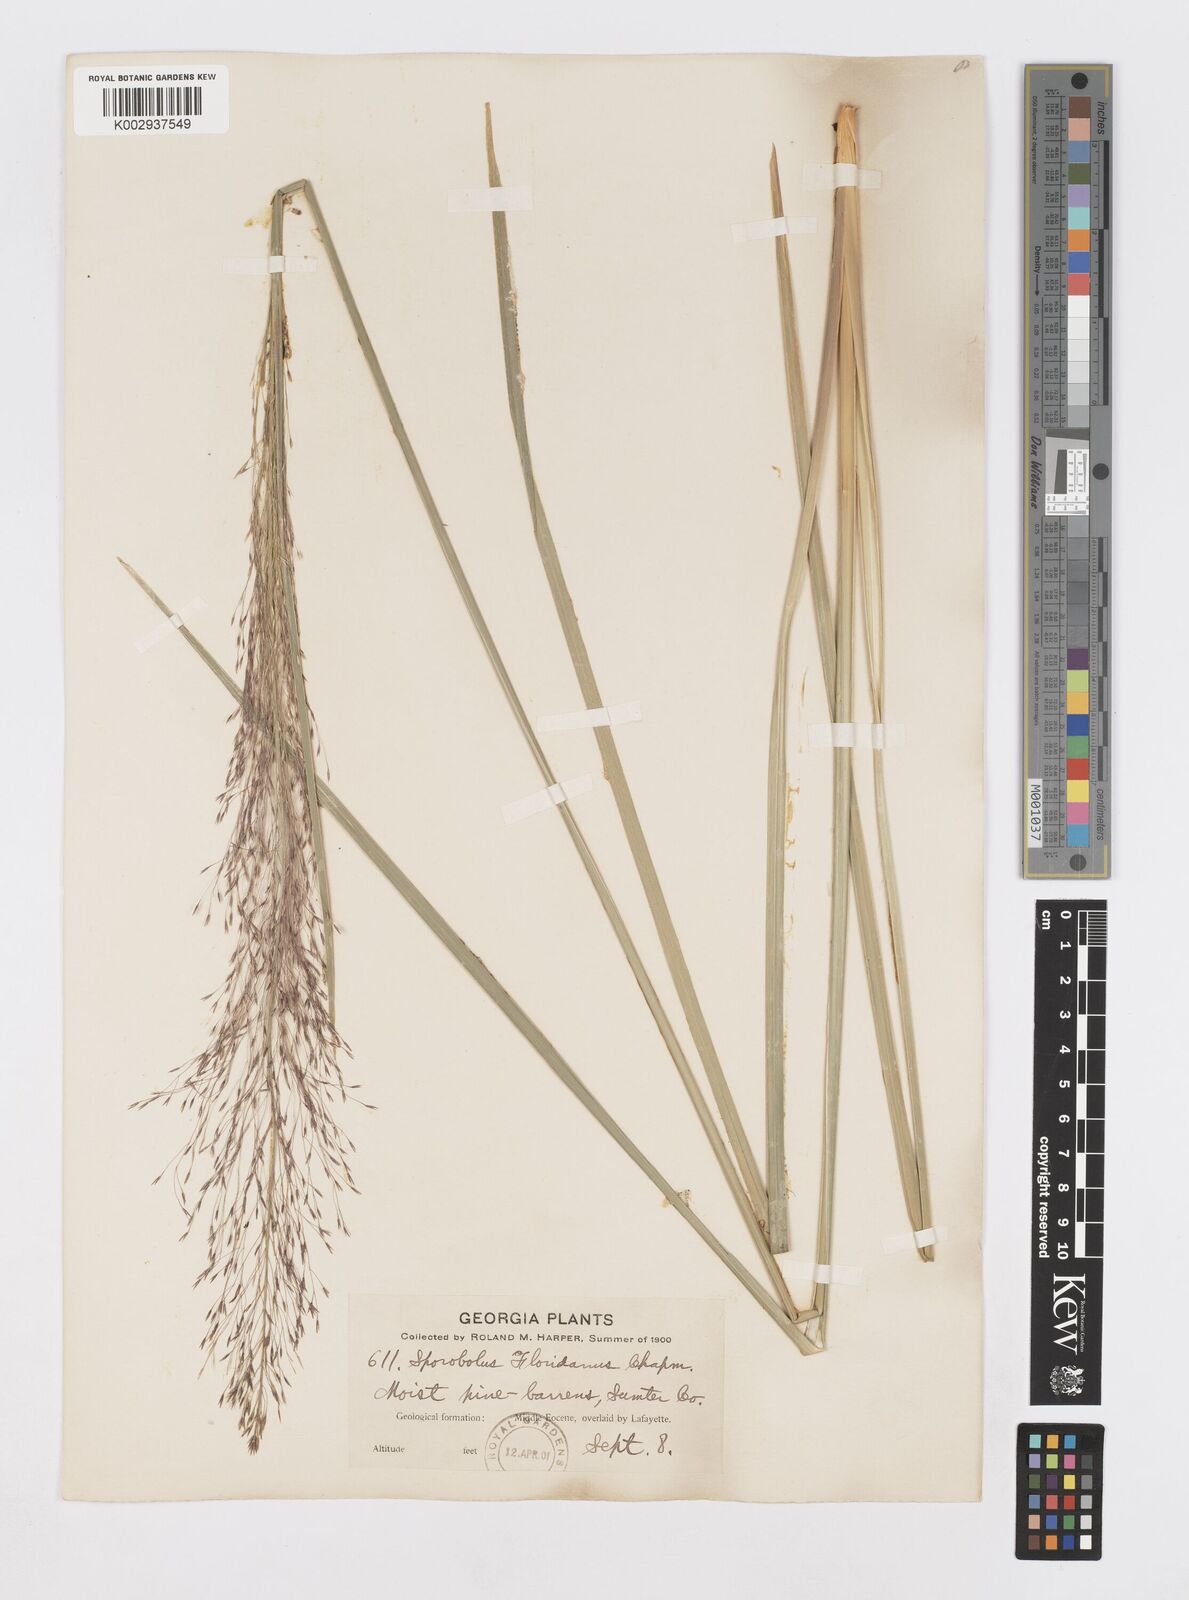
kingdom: Plantae
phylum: Tracheophyta
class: Liliopsida
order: Poales
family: Poaceae
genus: Sporobolus
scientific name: Sporobolus floridanus
